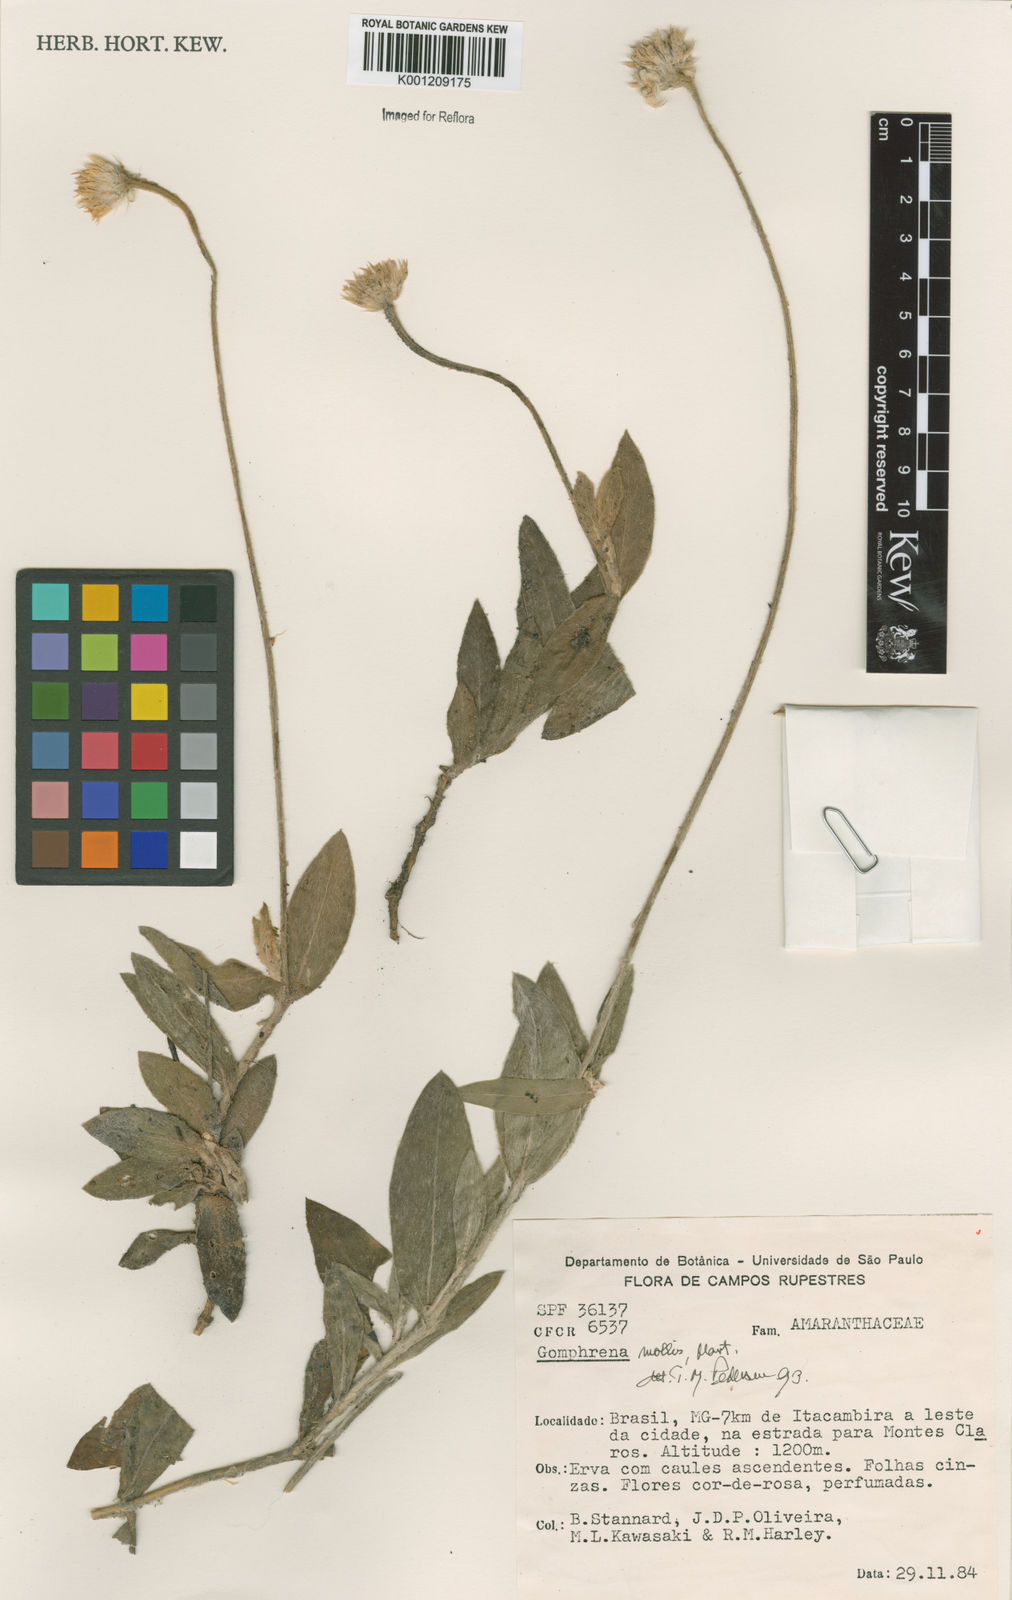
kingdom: Plantae
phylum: Tracheophyta
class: Magnoliopsida
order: Caryophyllales
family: Amaranthaceae
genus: Gomphrena
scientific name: Gomphrena mollis
